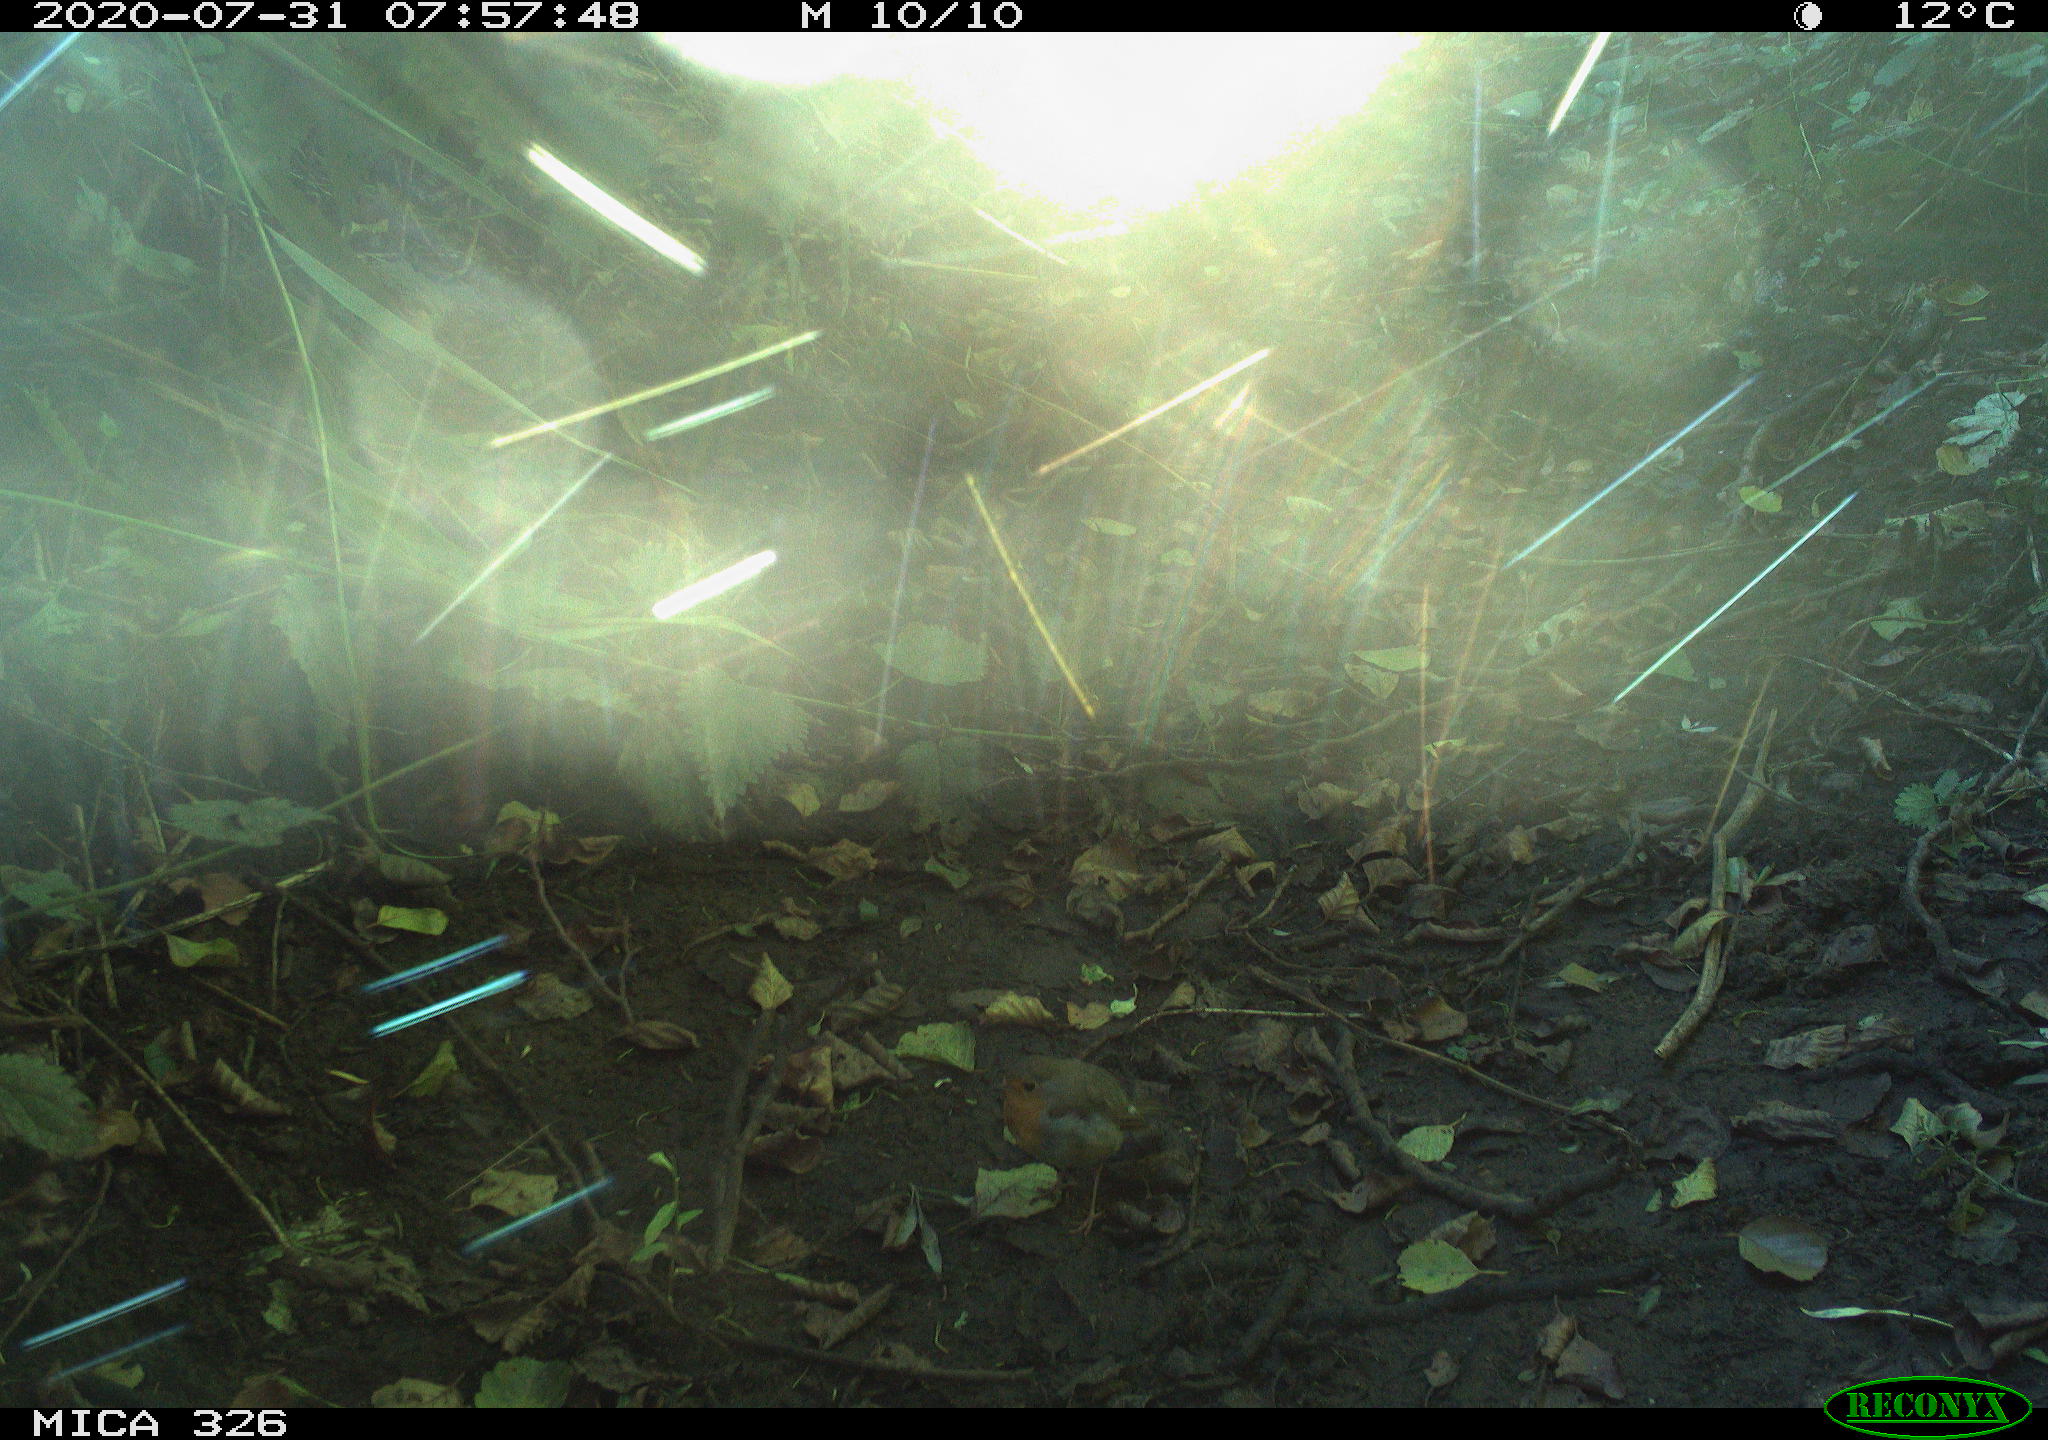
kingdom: Animalia
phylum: Chordata
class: Aves
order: Passeriformes
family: Muscicapidae
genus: Erithacus
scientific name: Erithacus rubecula
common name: European robin
